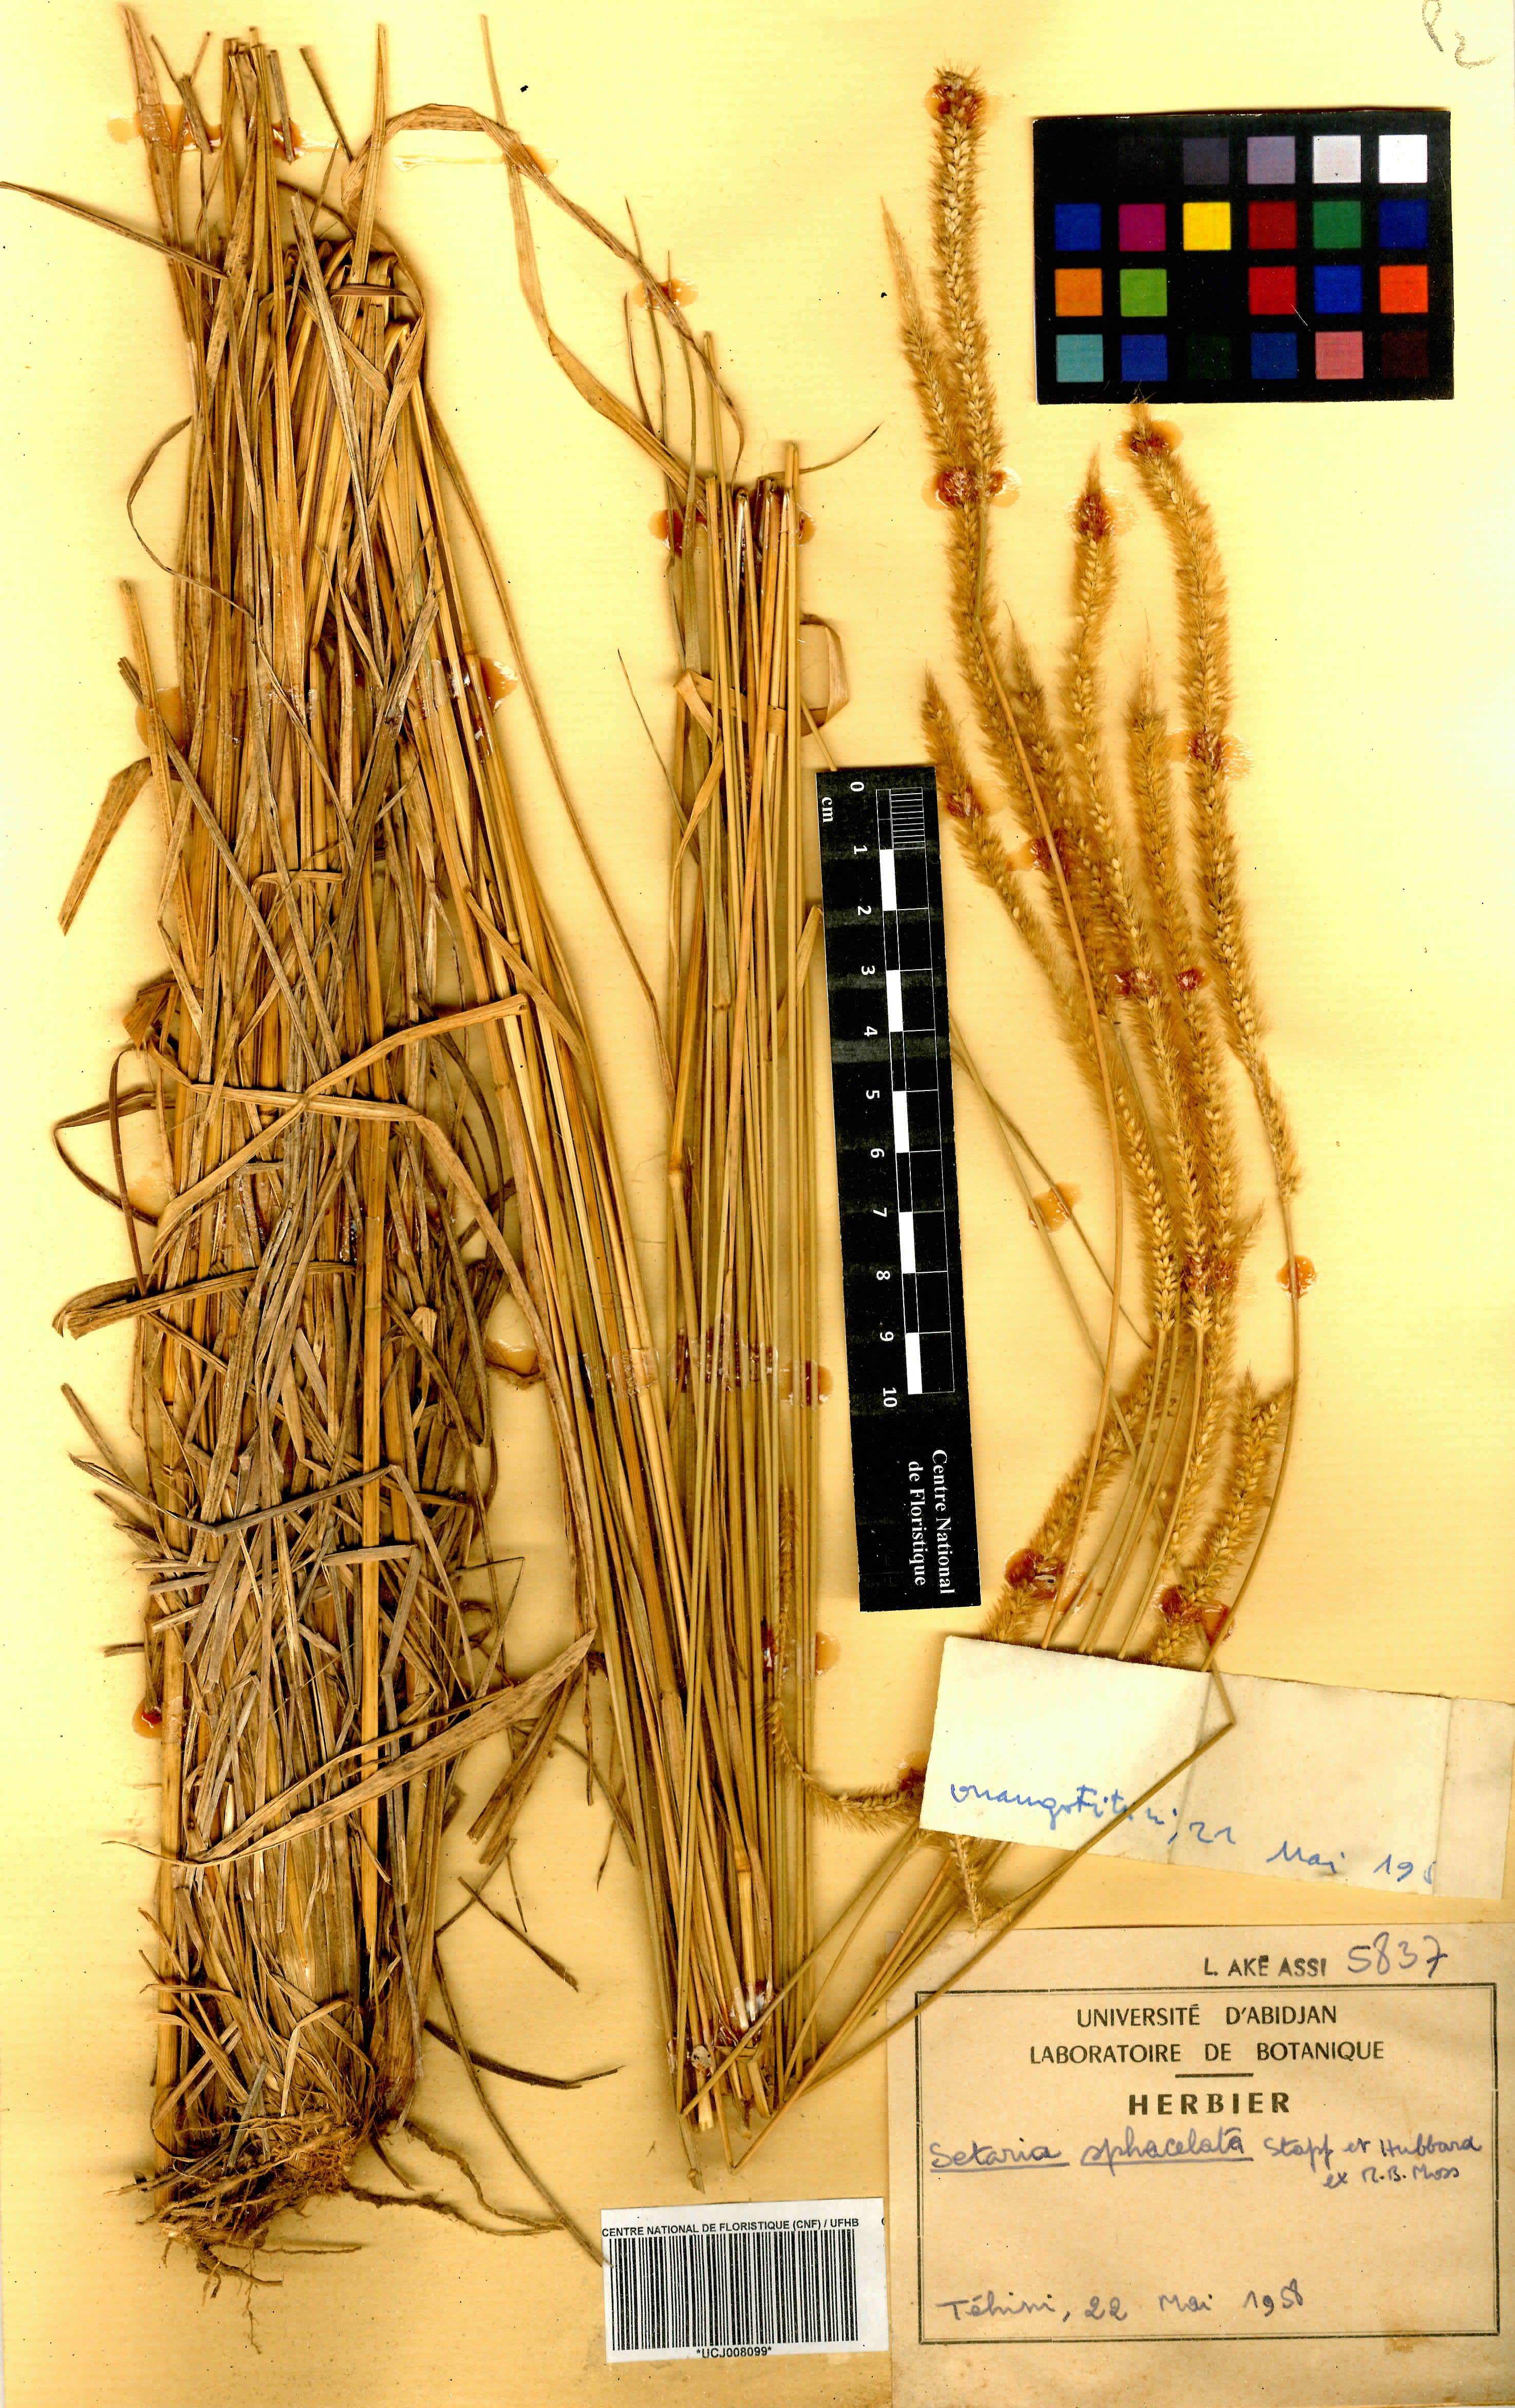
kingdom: Plantae
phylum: Tracheophyta
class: Liliopsida
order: Poales
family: Poaceae
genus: Setaria
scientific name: Setaria sphacelata
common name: African bristlegrass
